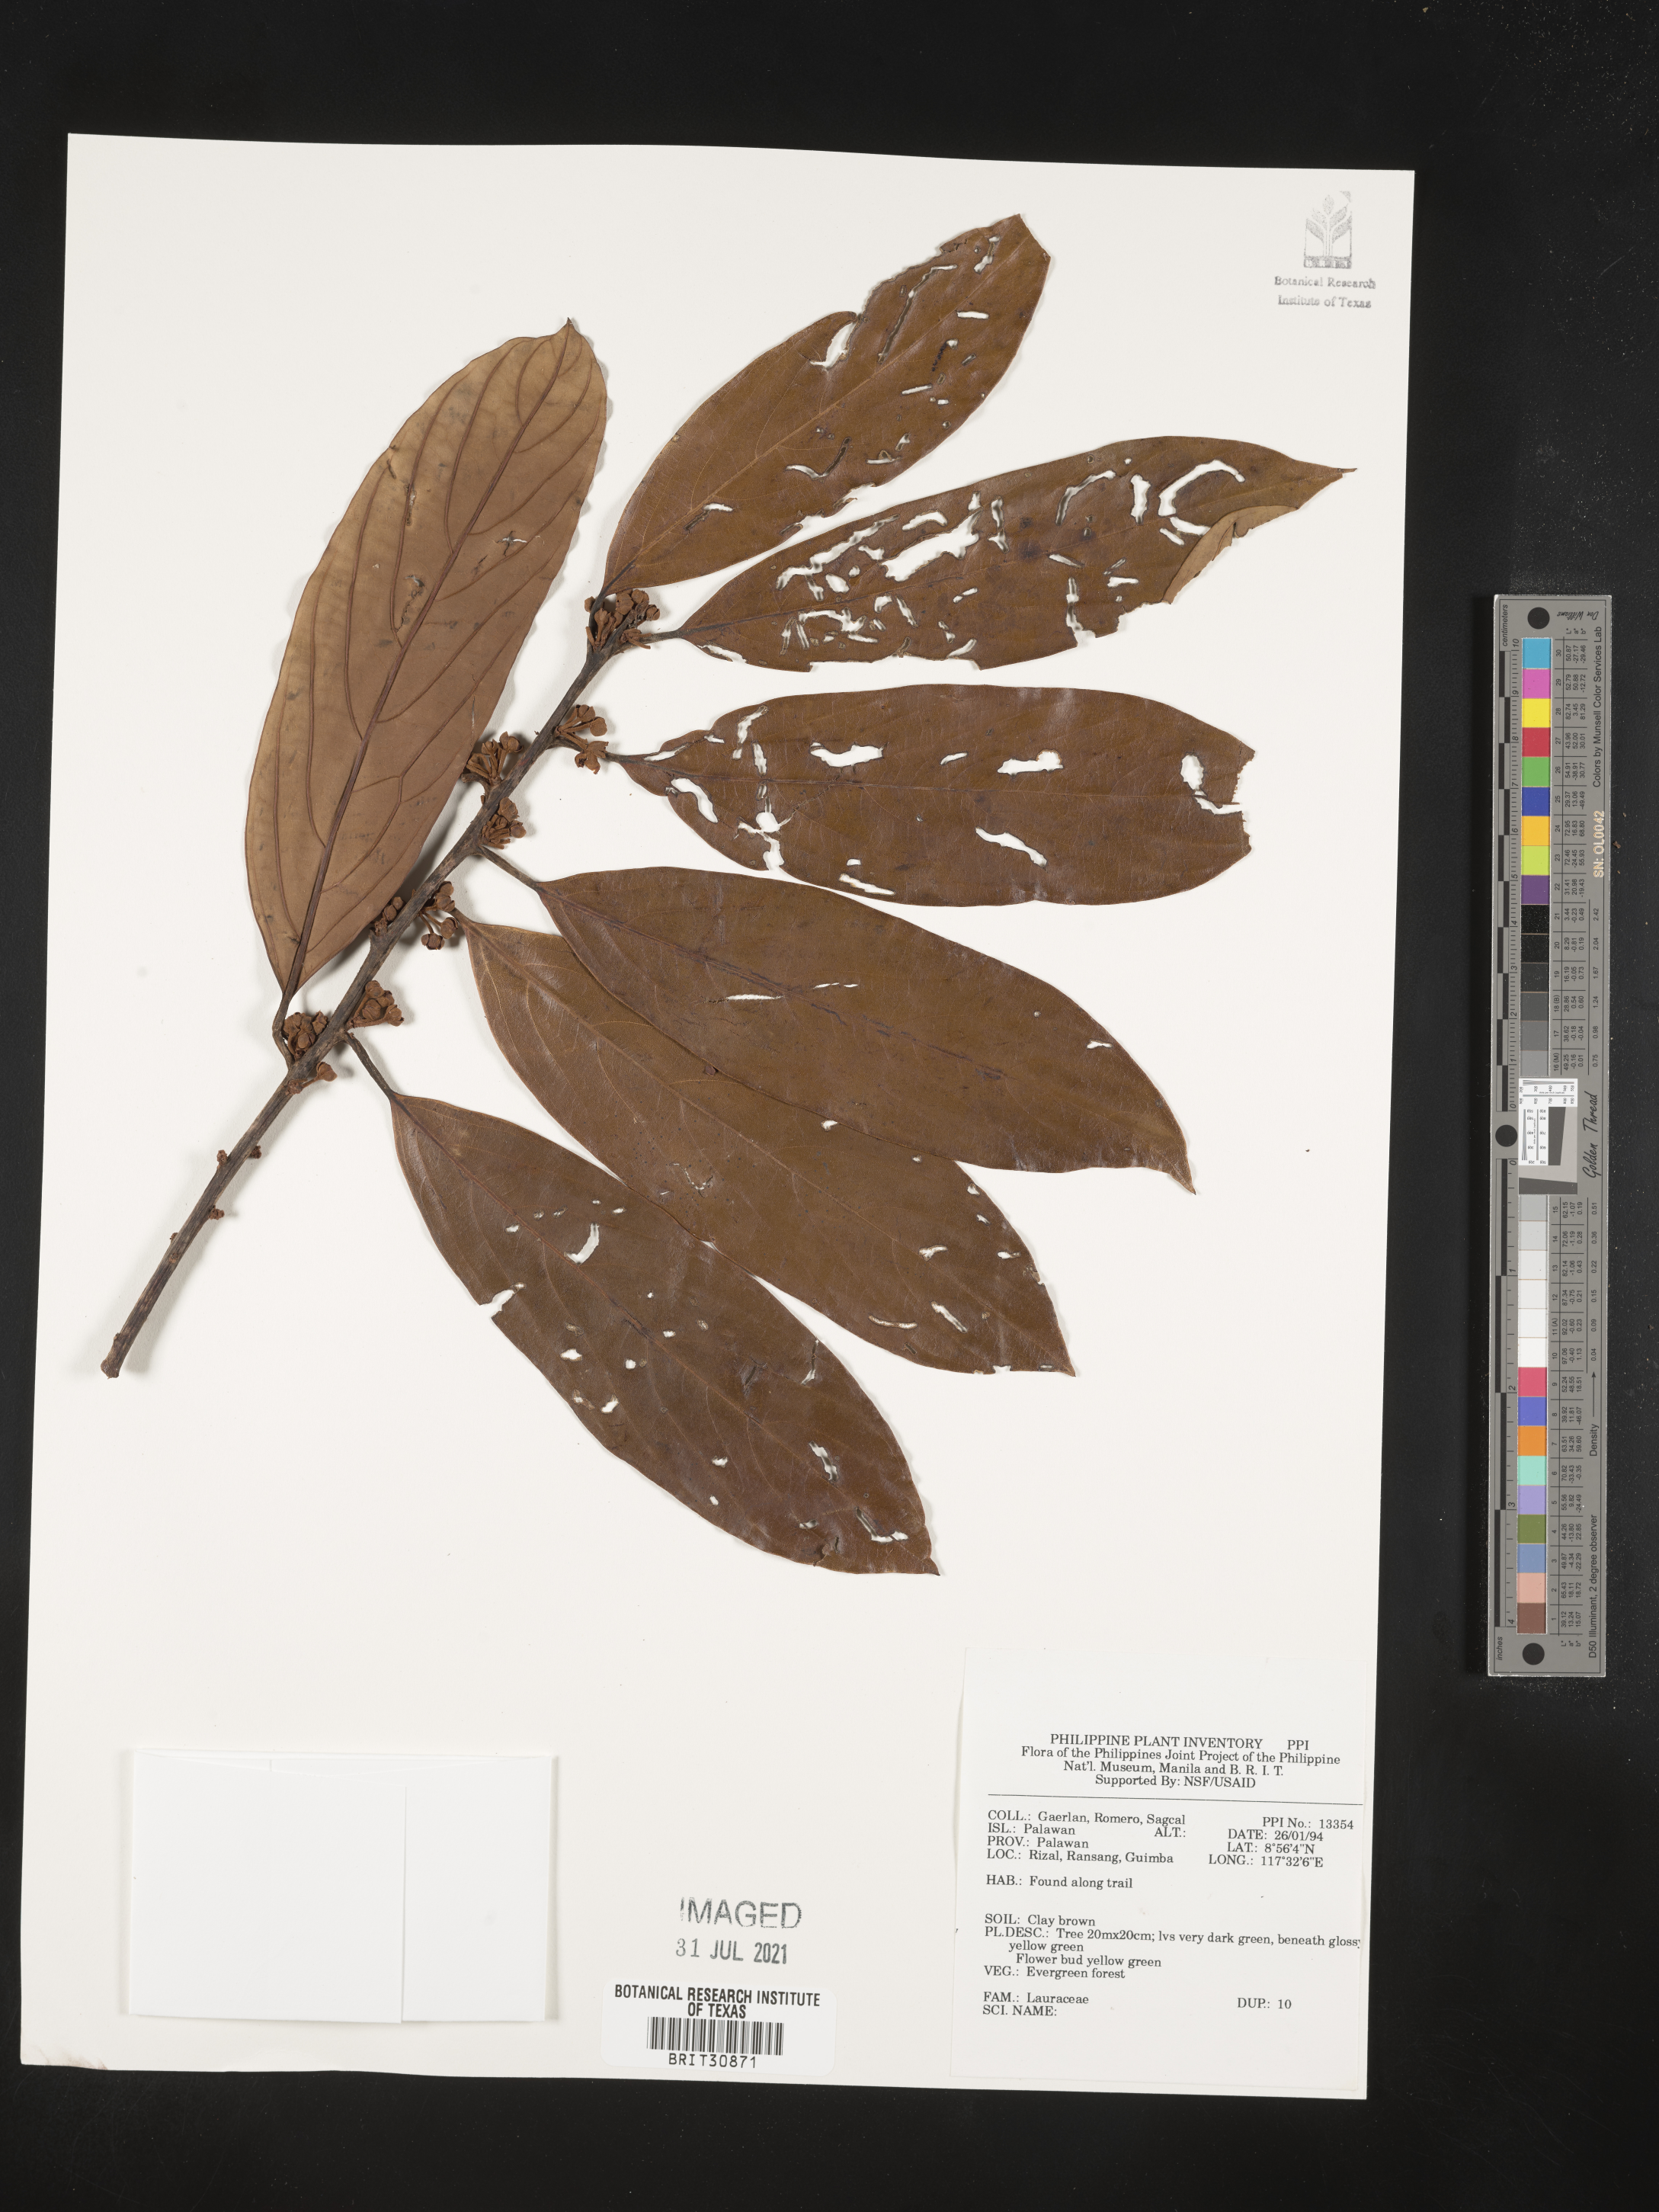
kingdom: Plantae
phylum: Tracheophyta
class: Magnoliopsida
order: Laurales
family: Lauraceae
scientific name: Lauraceae
